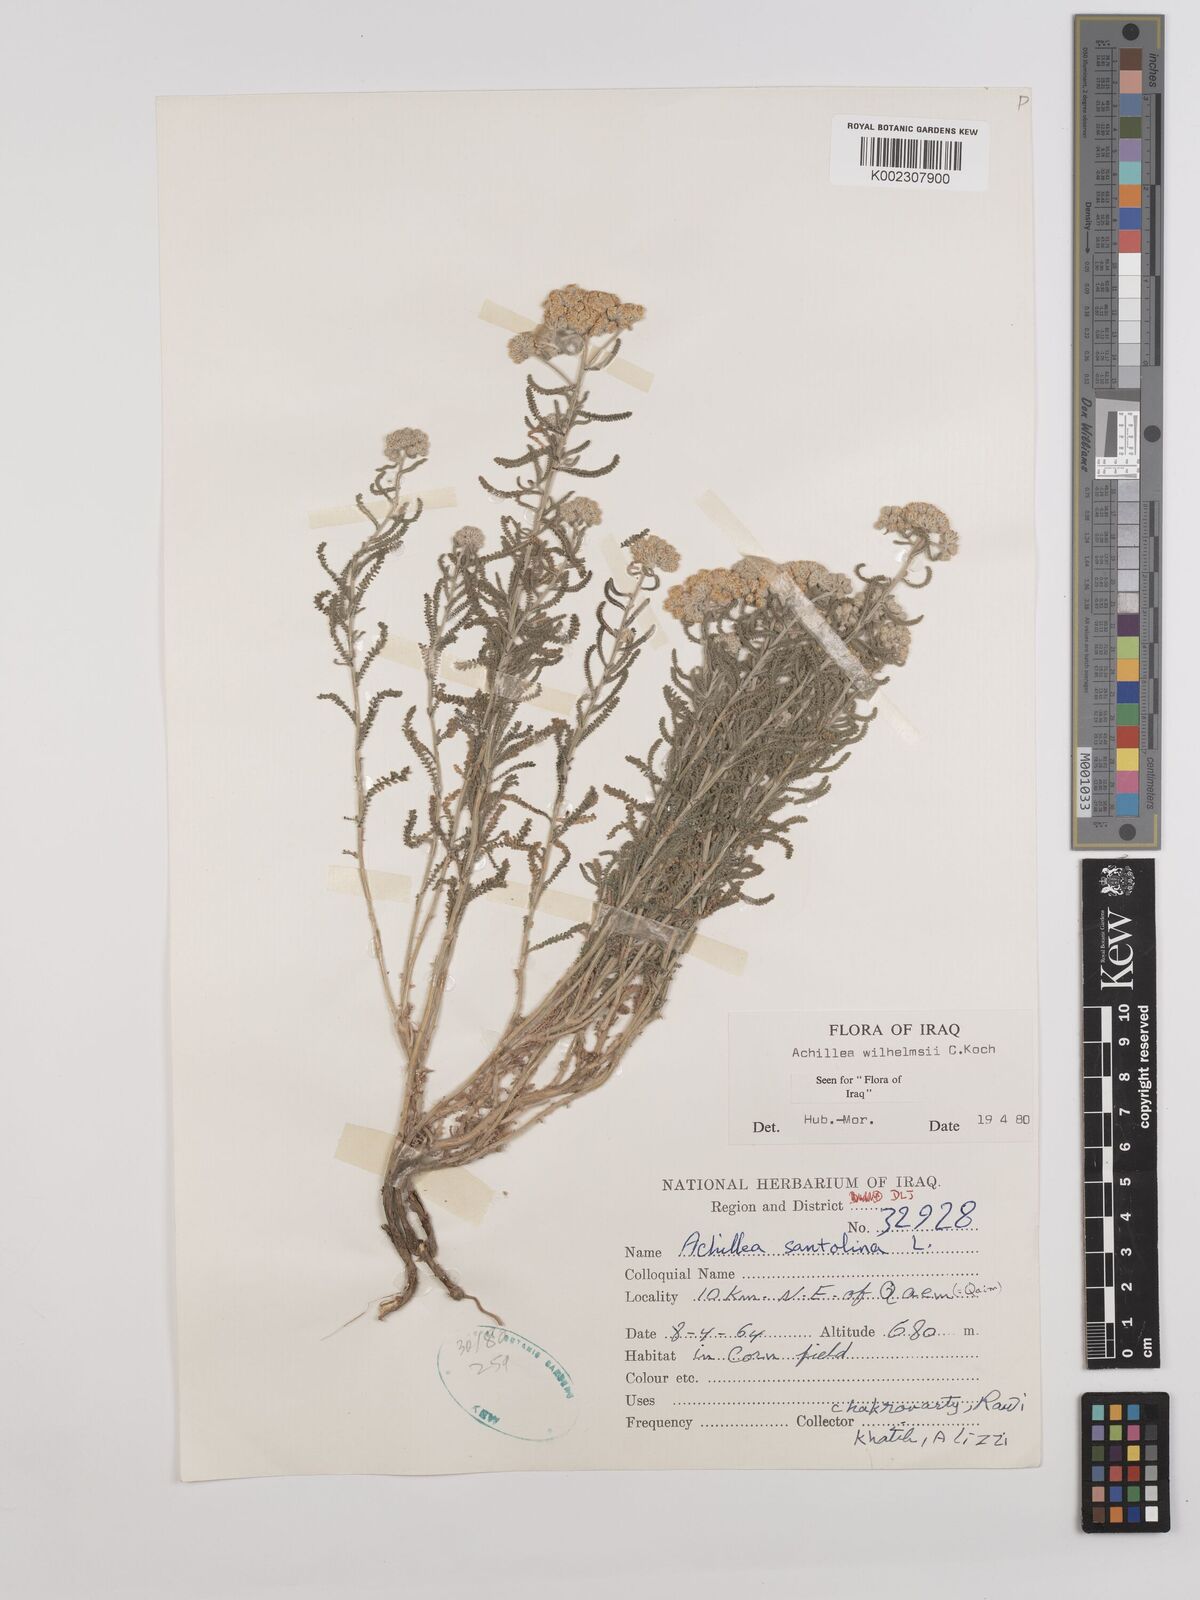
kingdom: Plantae
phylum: Tracheophyta
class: Magnoliopsida
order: Asterales
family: Asteraceae
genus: Achillea
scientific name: Achillea wilhelmsii
